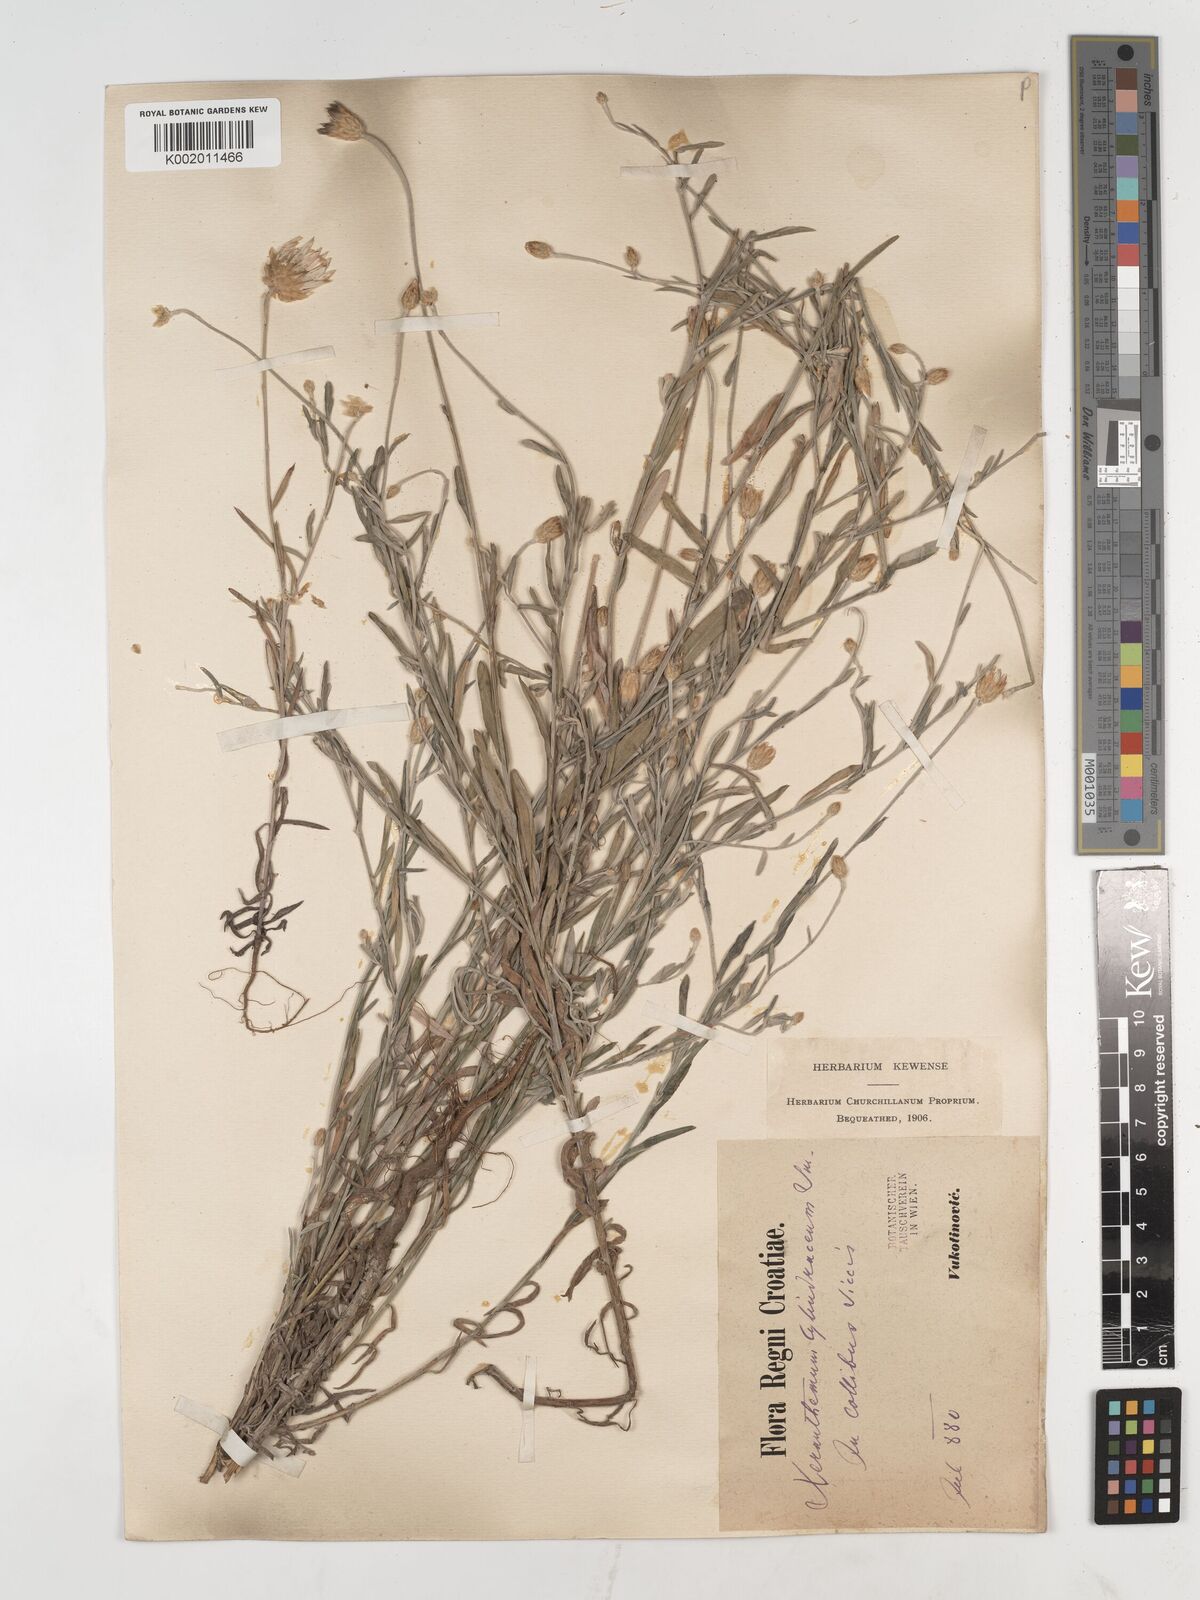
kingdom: Plantae
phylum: Tracheophyta
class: Magnoliopsida
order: Asterales
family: Asteraceae
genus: Xeranthemum
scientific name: Xeranthemum cylindraceum
